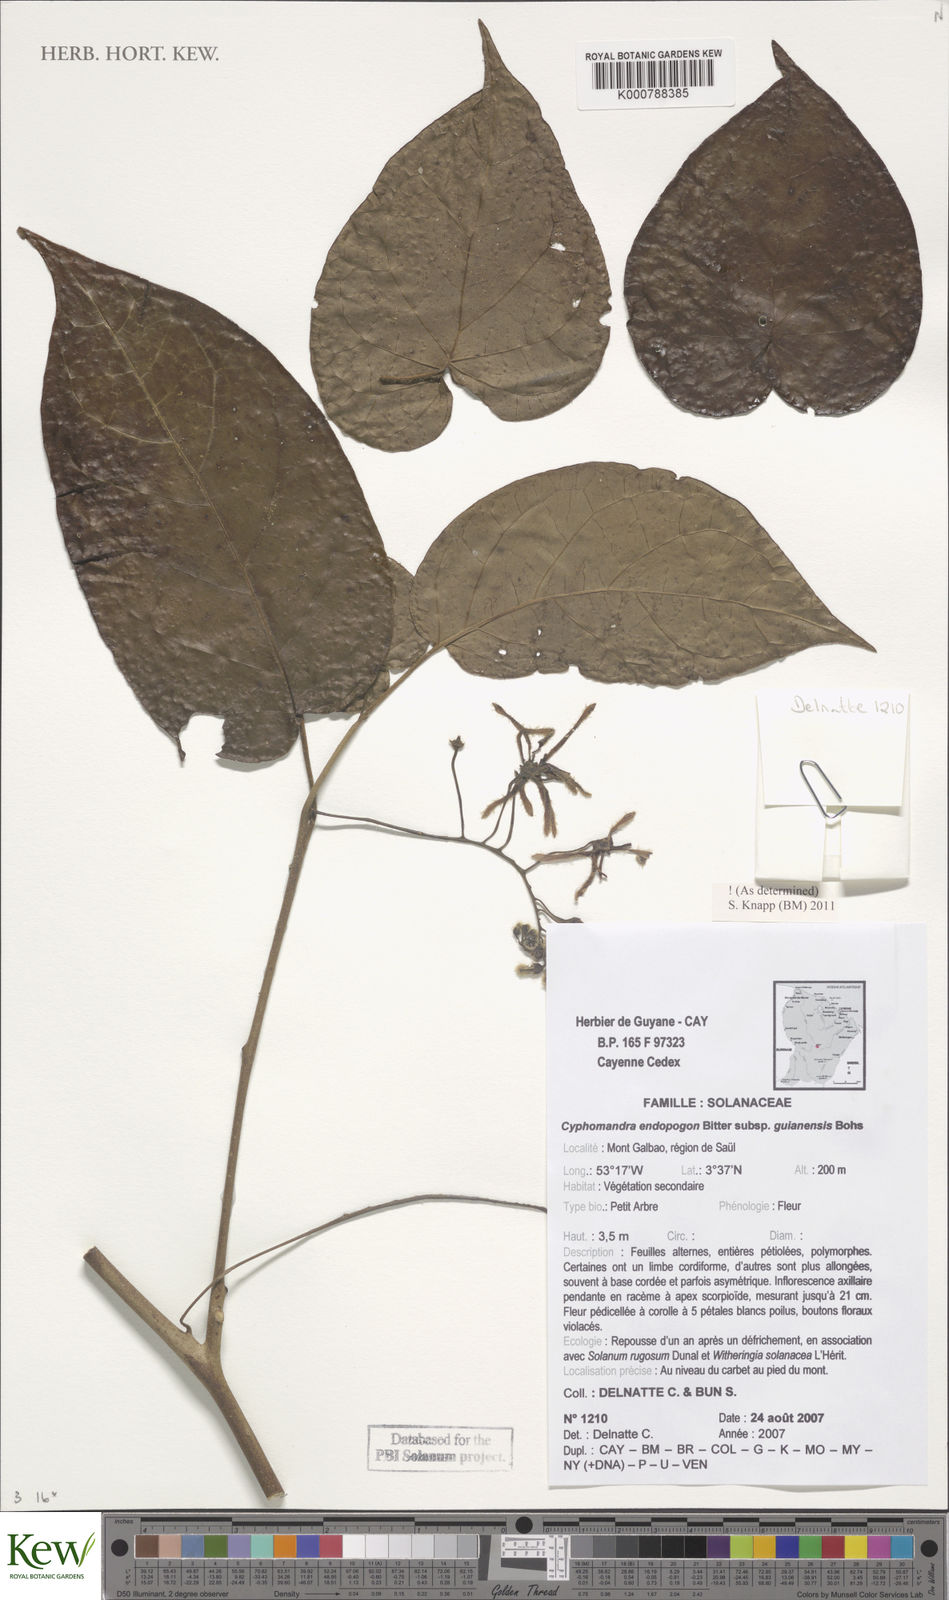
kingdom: Plantae
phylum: Tracheophyta
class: Magnoliopsida
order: Solanales
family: Solanaceae
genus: Solanum
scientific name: Solanum endopogon
